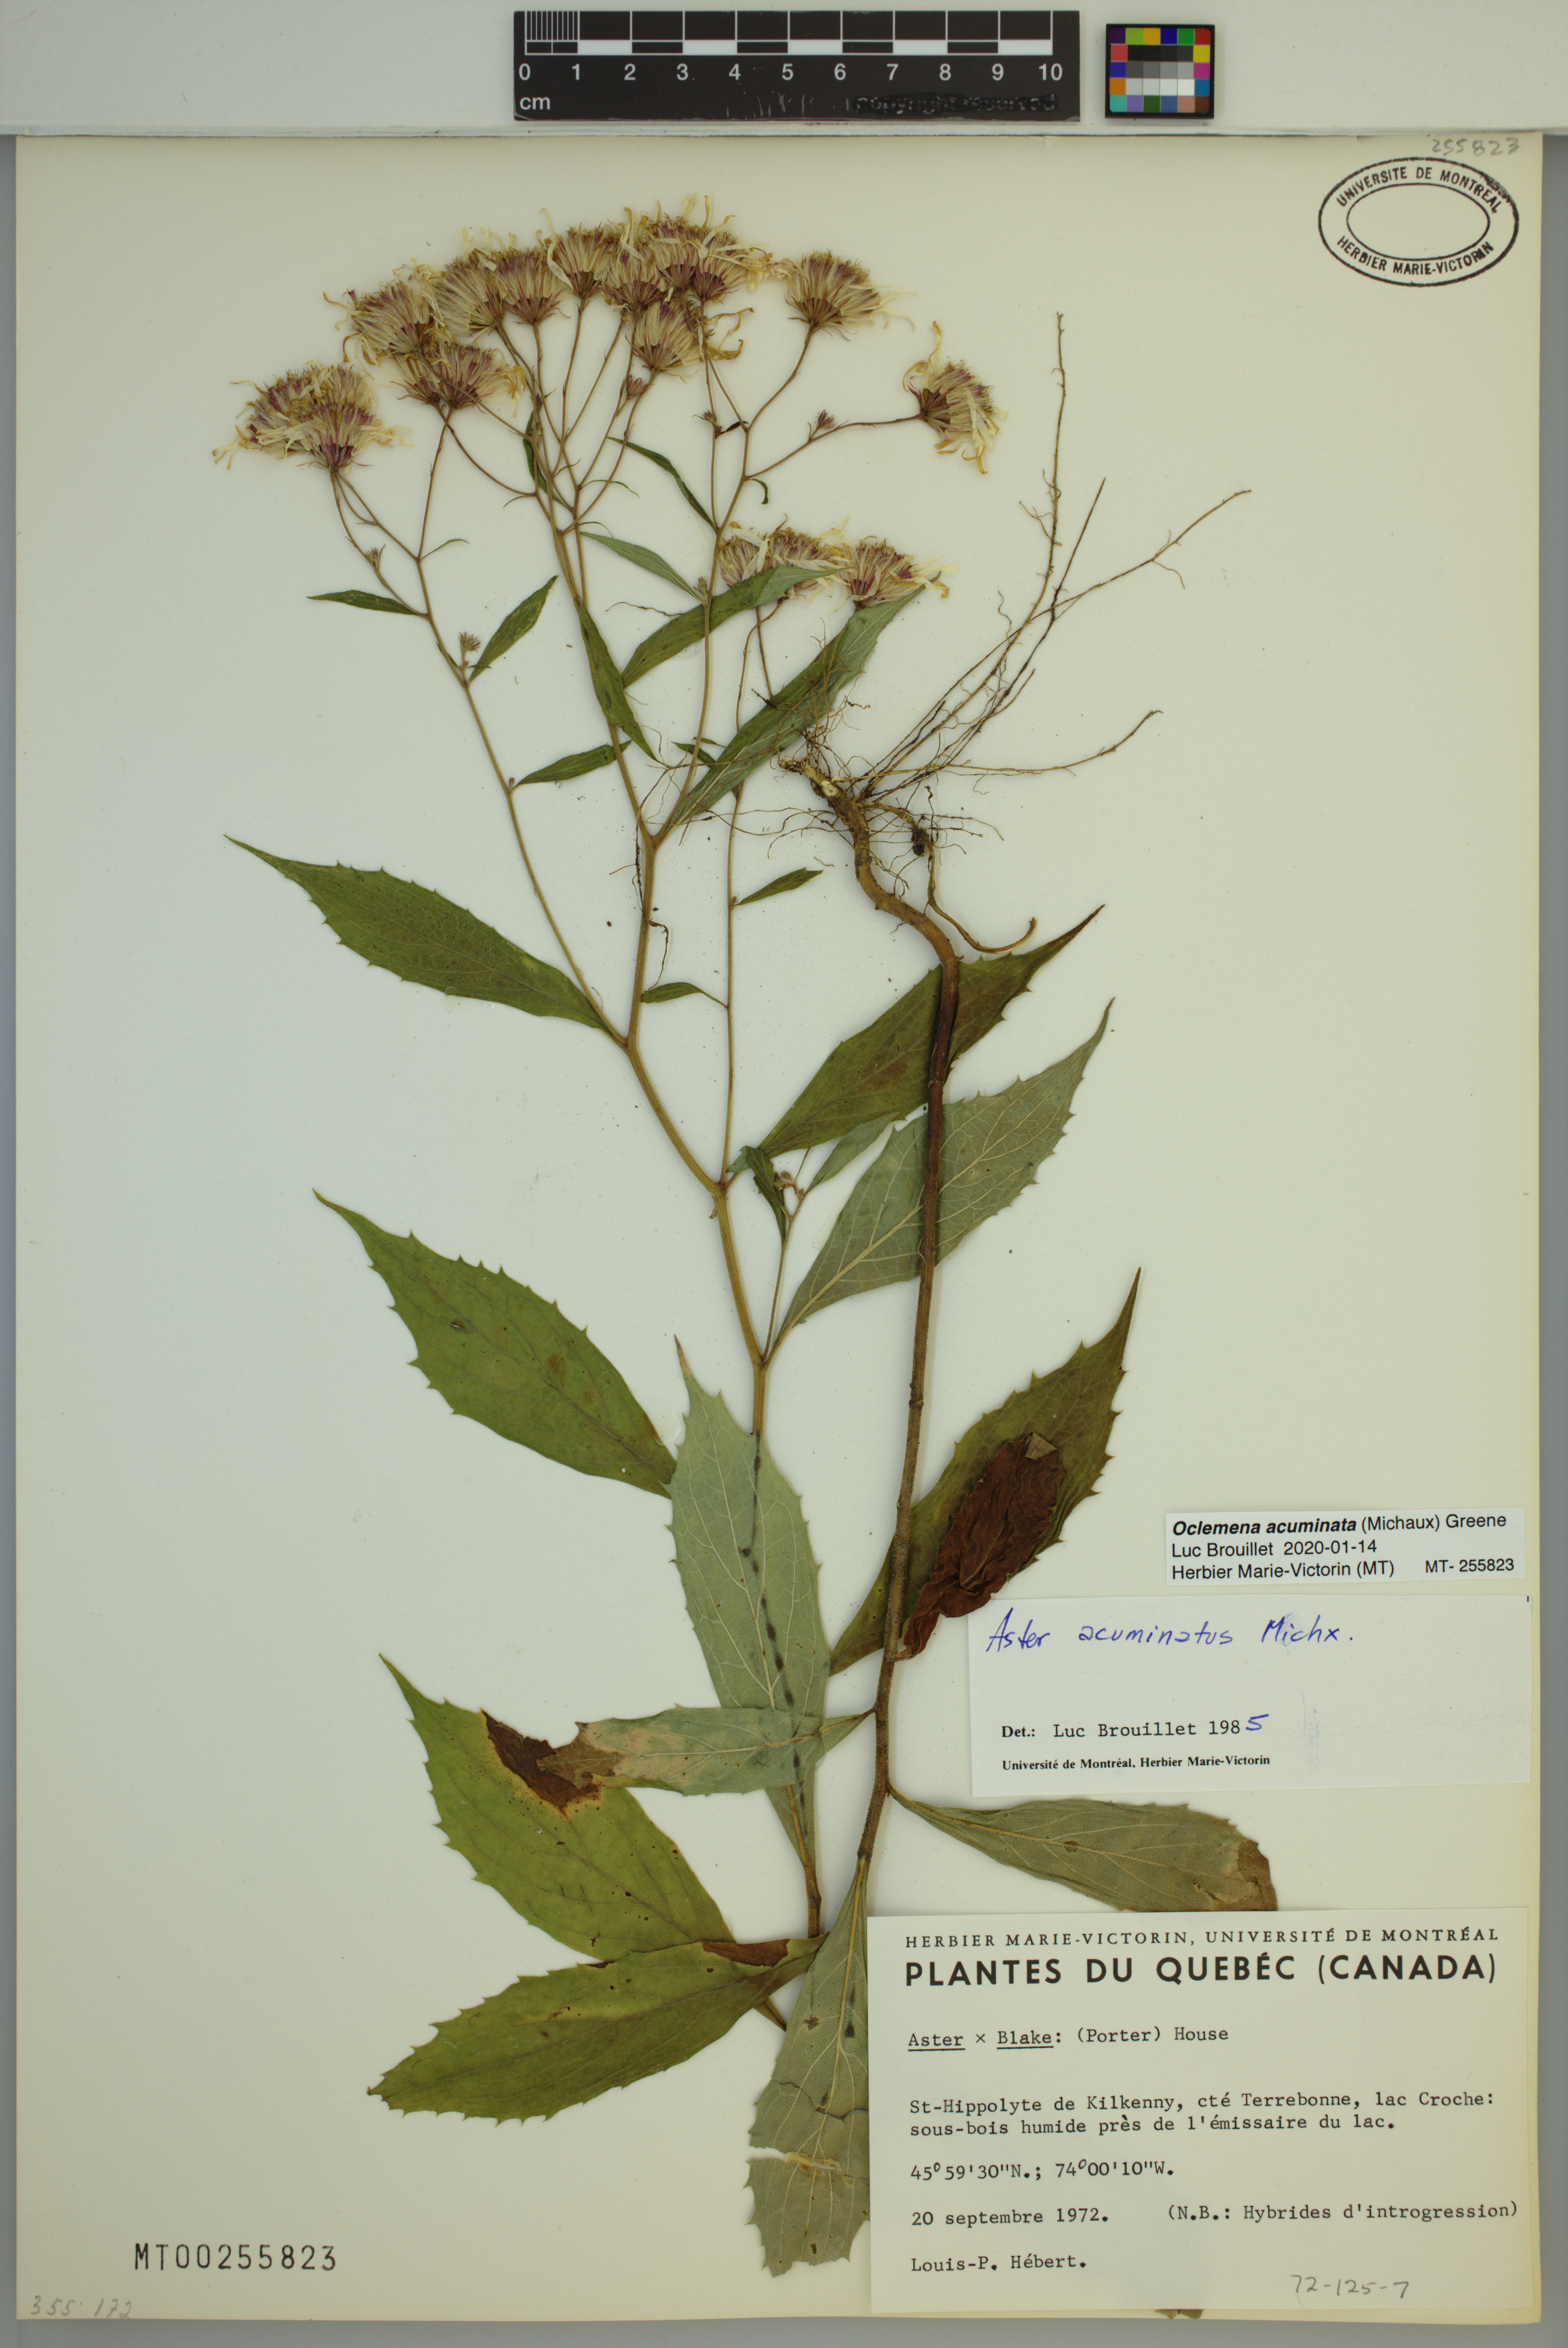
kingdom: Plantae
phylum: Tracheophyta
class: Magnoliopsida
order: Asterales
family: Asteraceae
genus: Oclemena
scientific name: Oclemena acuminata
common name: Mountain aster
